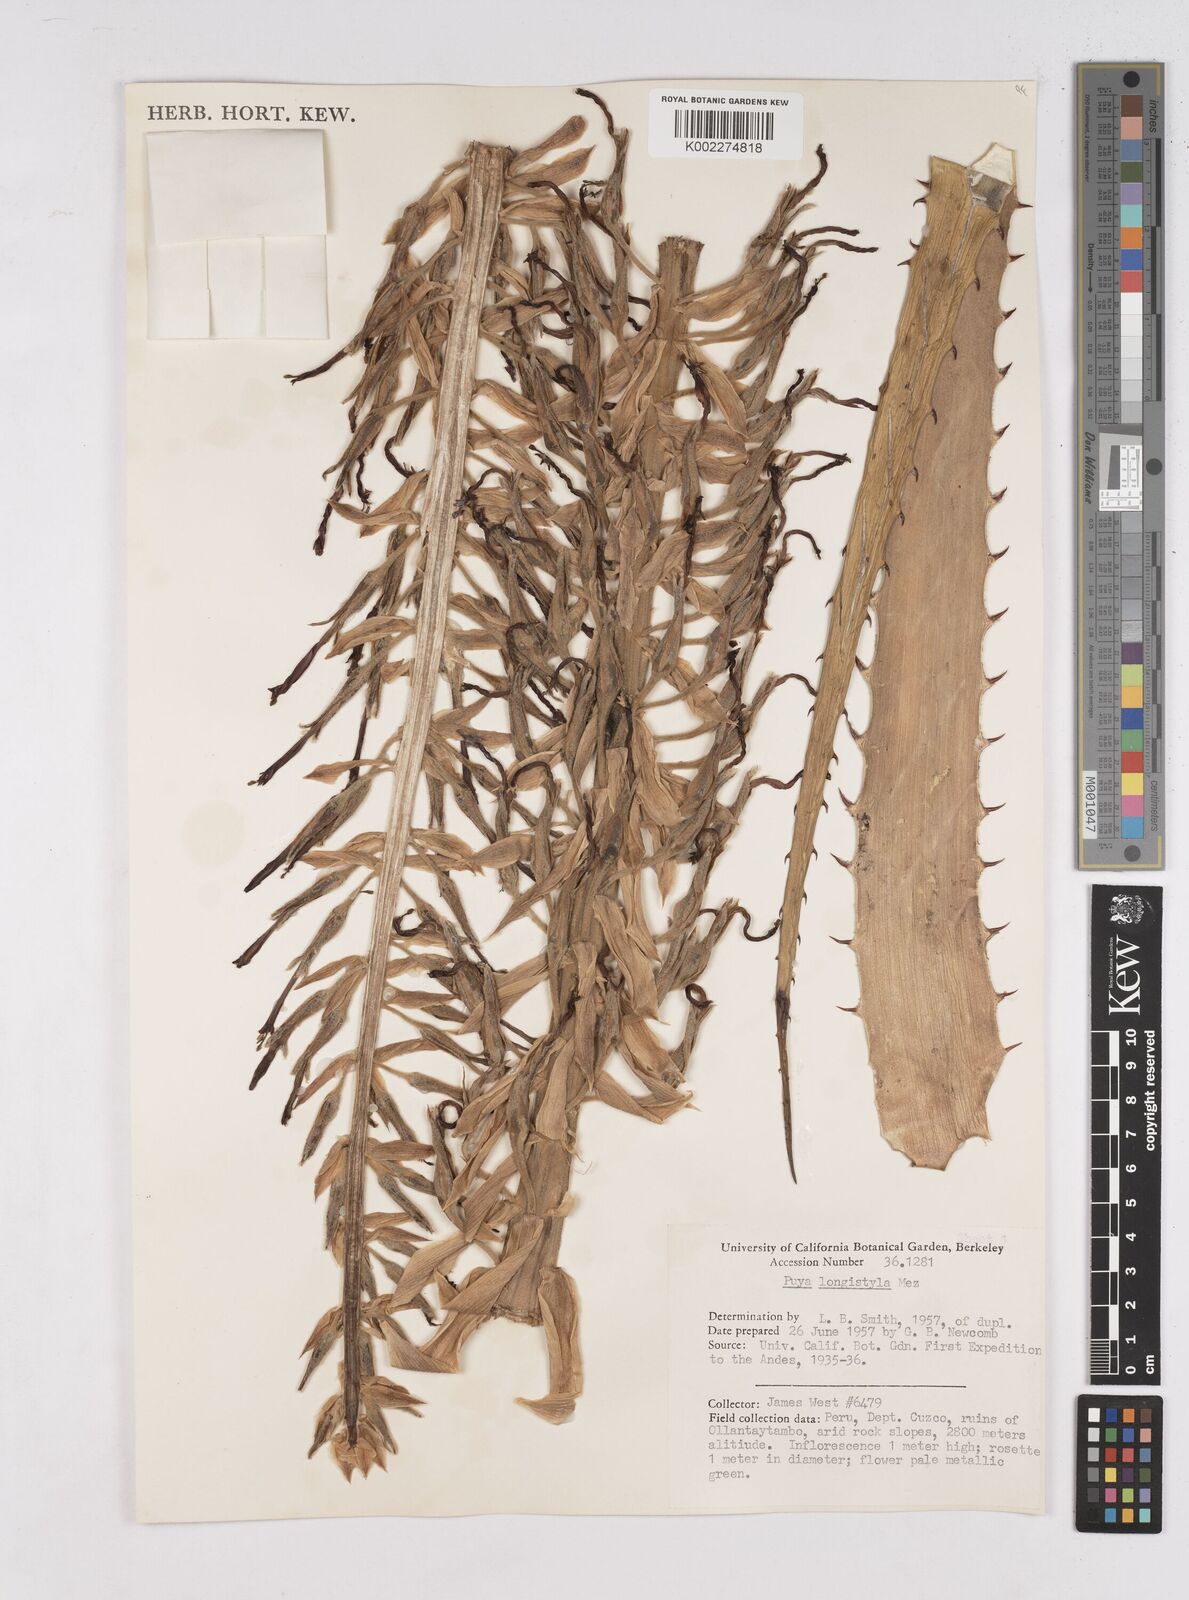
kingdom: Plantae
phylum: Tracheophyta
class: Liliopsida
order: Poales
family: Bromeliaceae
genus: Puya
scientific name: Puya longistyla
